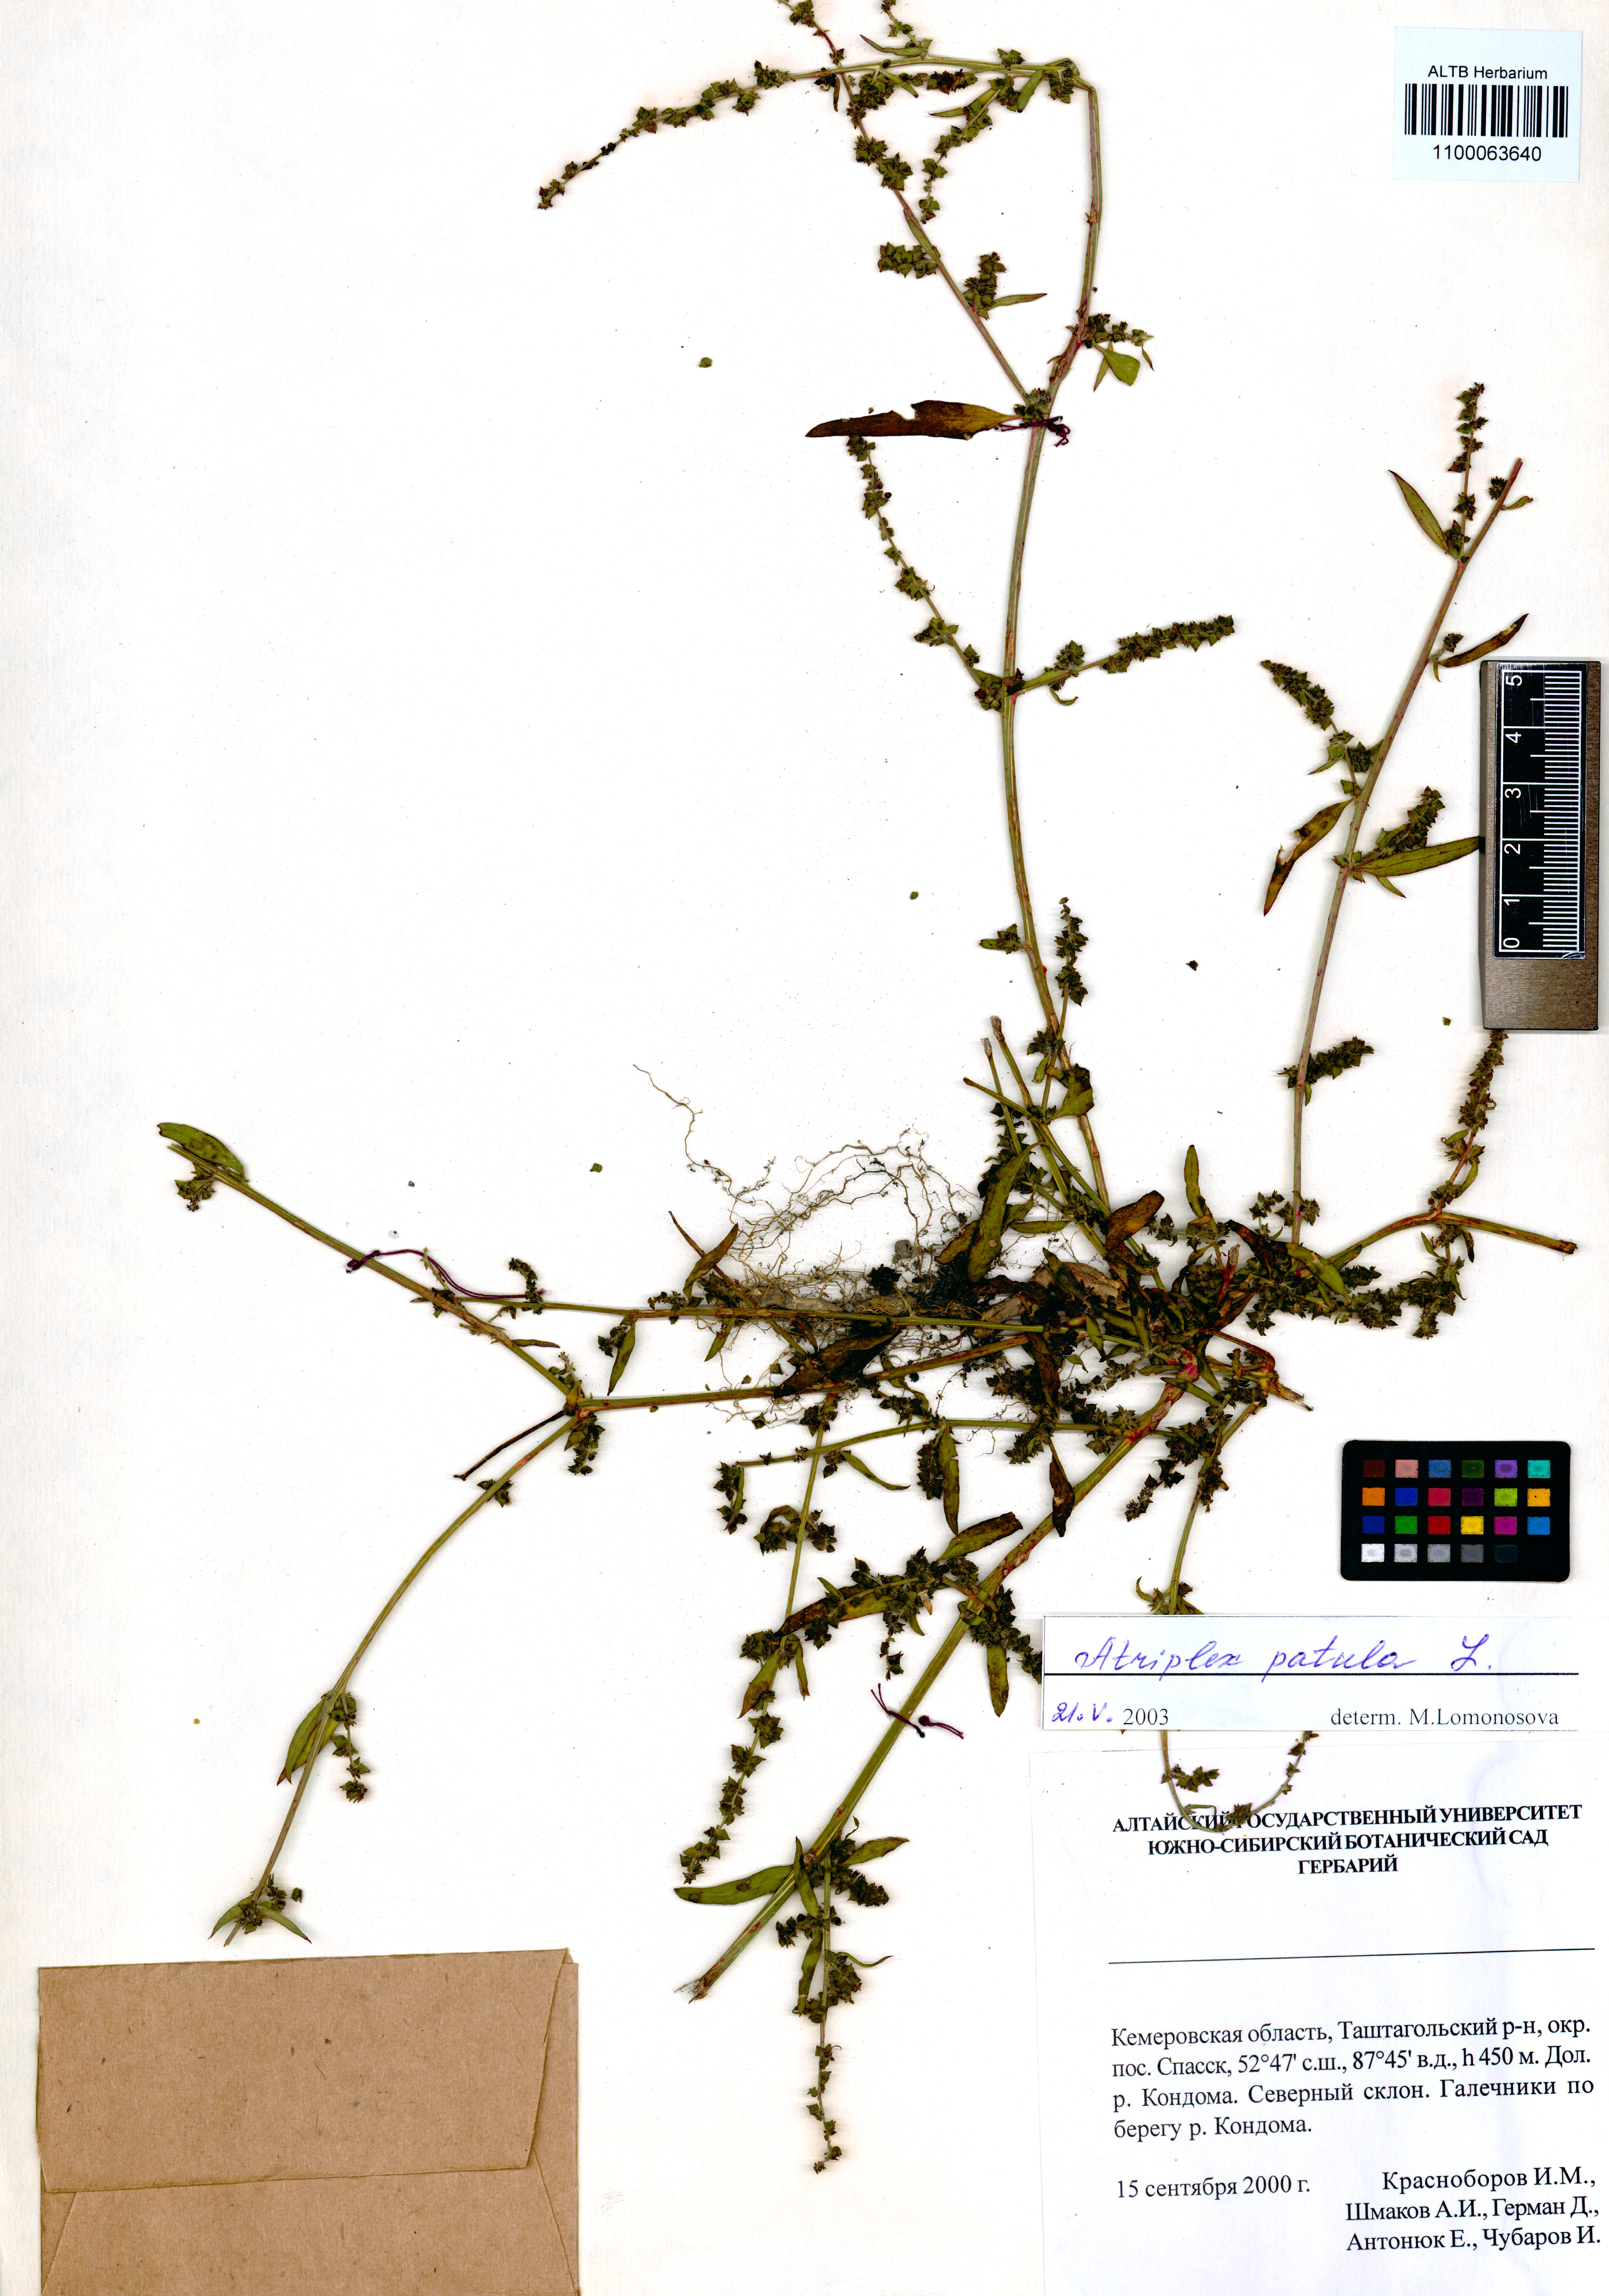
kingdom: Plantae
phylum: Tracheophyta
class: Magnoliopsida
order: Caryophyllales
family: Amaranthaceae
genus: Atriplex
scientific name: Atriplex patula
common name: Common orache
